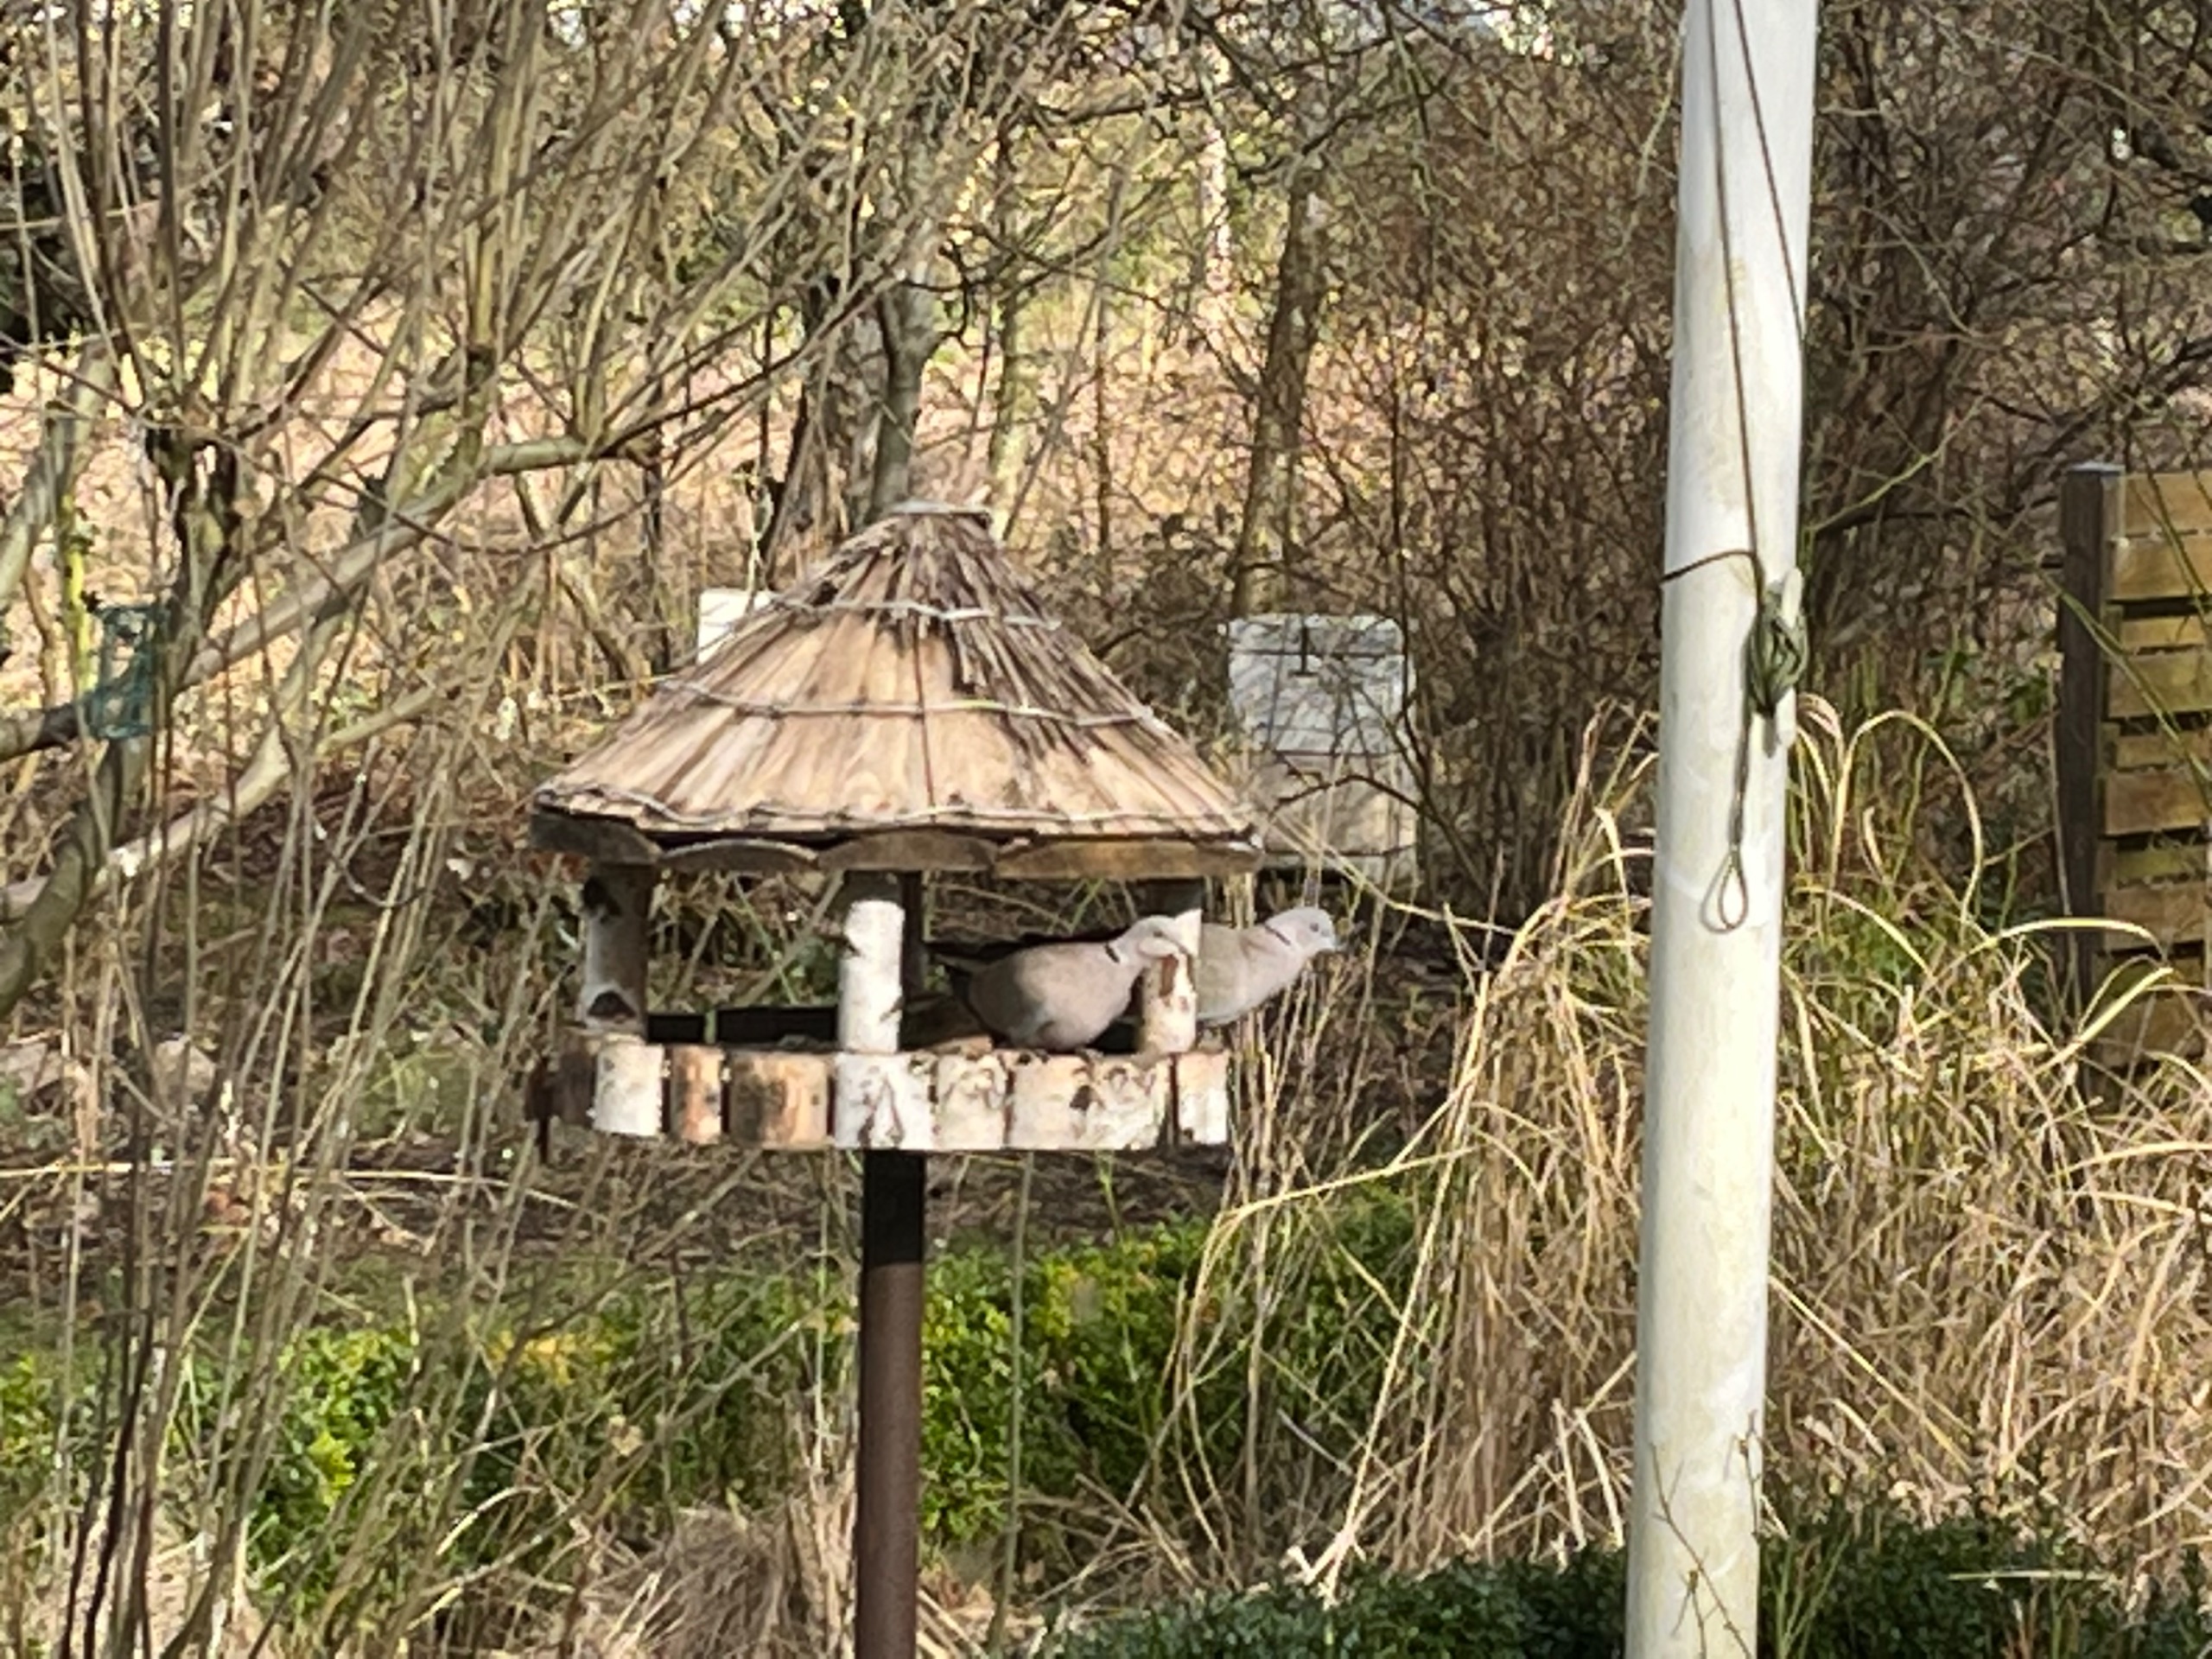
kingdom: Animalia
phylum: Chordata
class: Aves
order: Columbiformes
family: Columbidae
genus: Streptopelia
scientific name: Streptopelia decaocto
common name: Tyrkerdue
